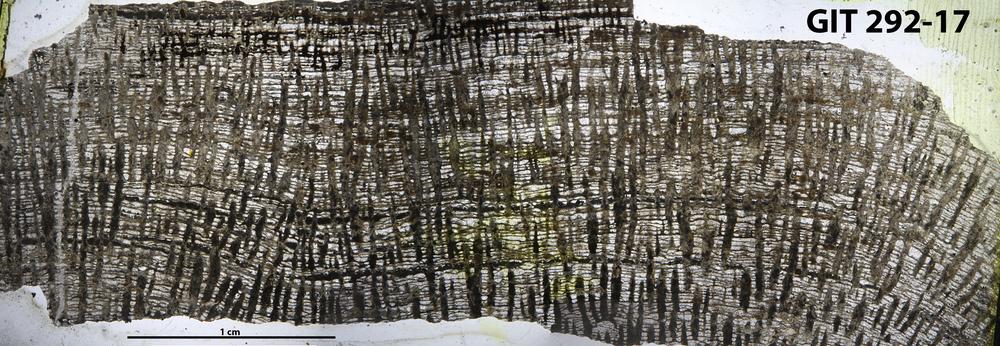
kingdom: Animalia
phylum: Porifera
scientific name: Porifera
